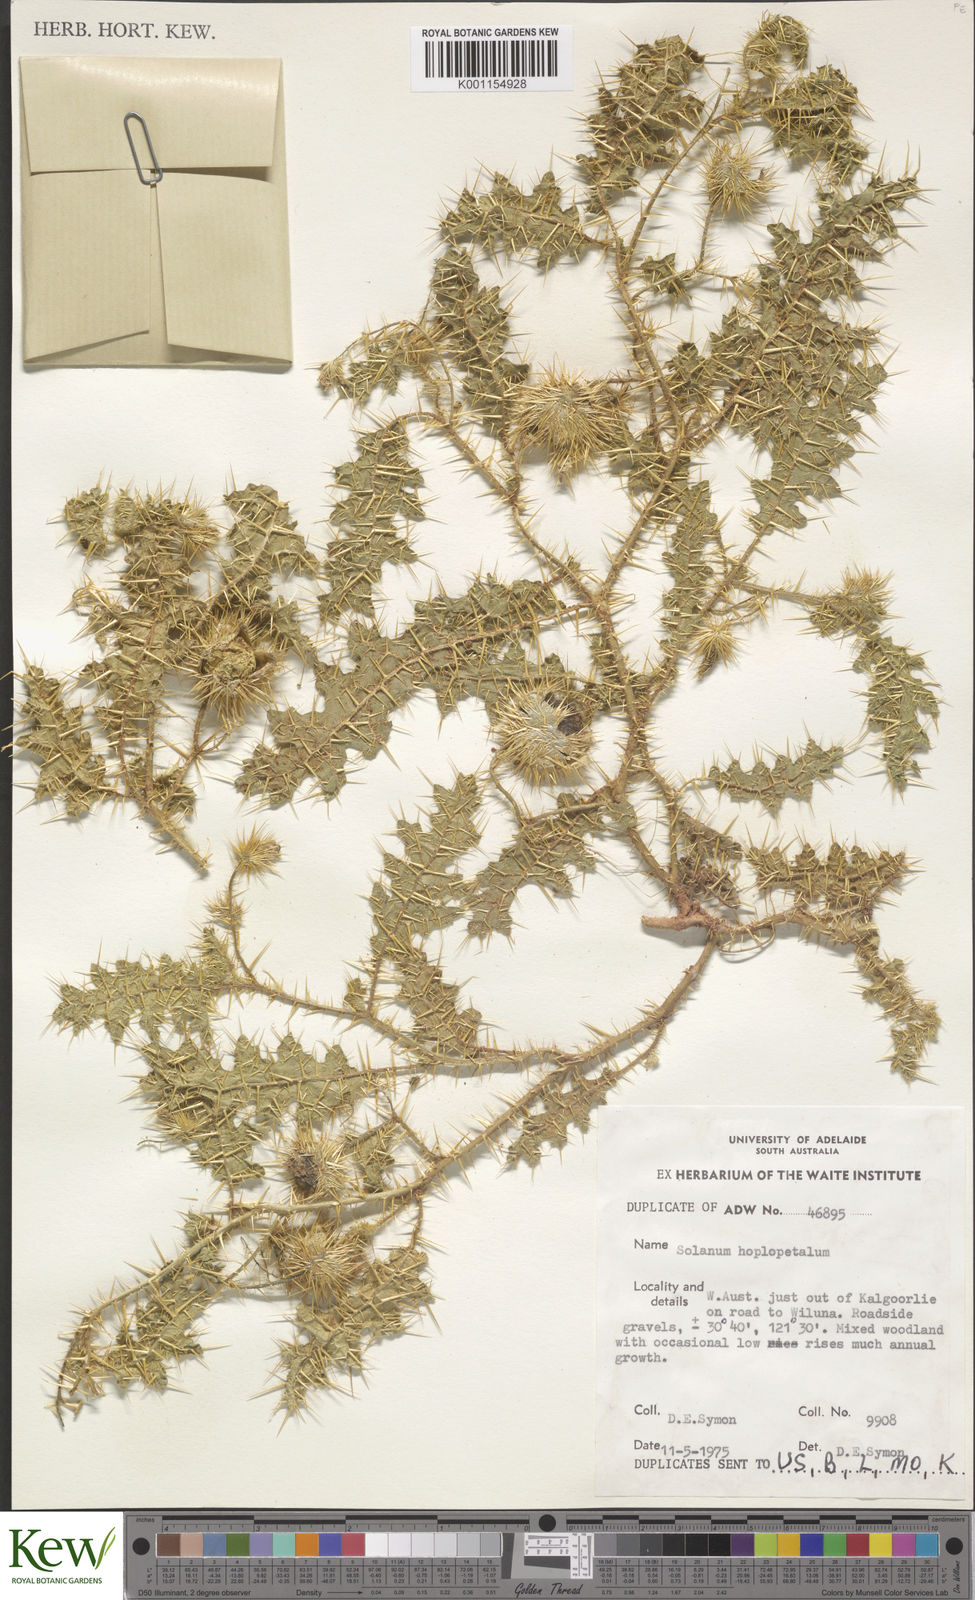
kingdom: Plantae
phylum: Tracheophyta
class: Magnoliopsida
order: Solanales
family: Solanaceae
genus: Solanum
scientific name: Solanum hoplopetalum
